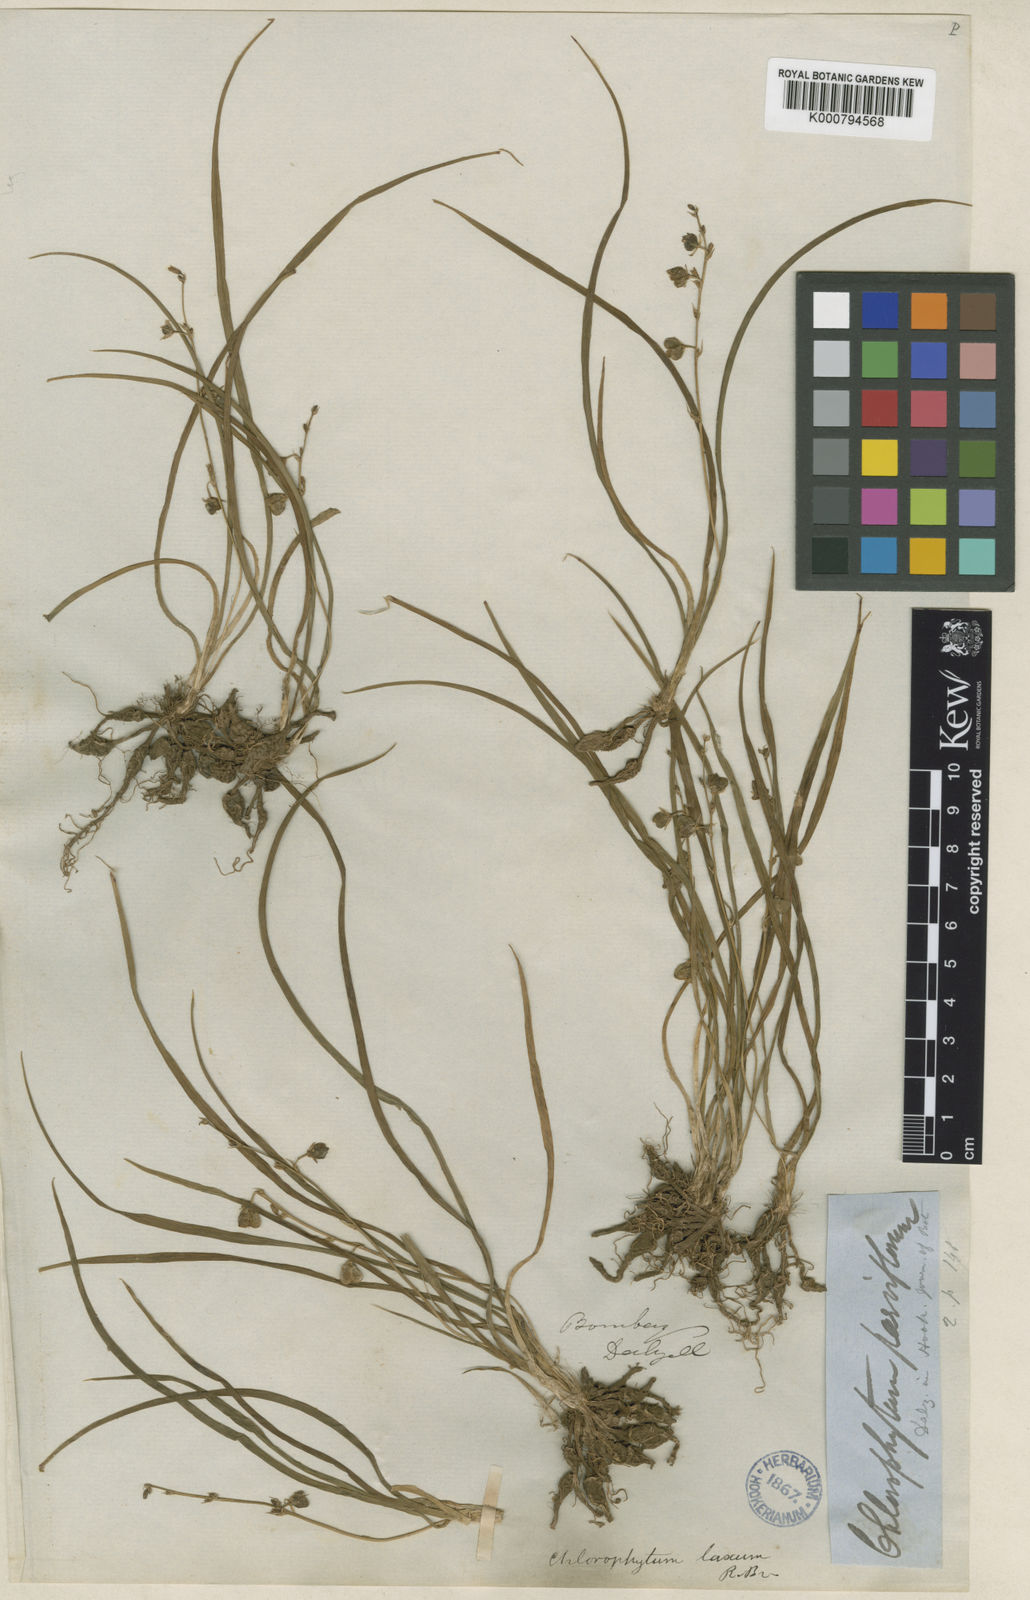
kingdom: Plantae
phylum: Tracheophyta
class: Liliopsida
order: Asparagales
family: Asparagaceae
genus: Chlorophytum
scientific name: Chlorophytum laxum
